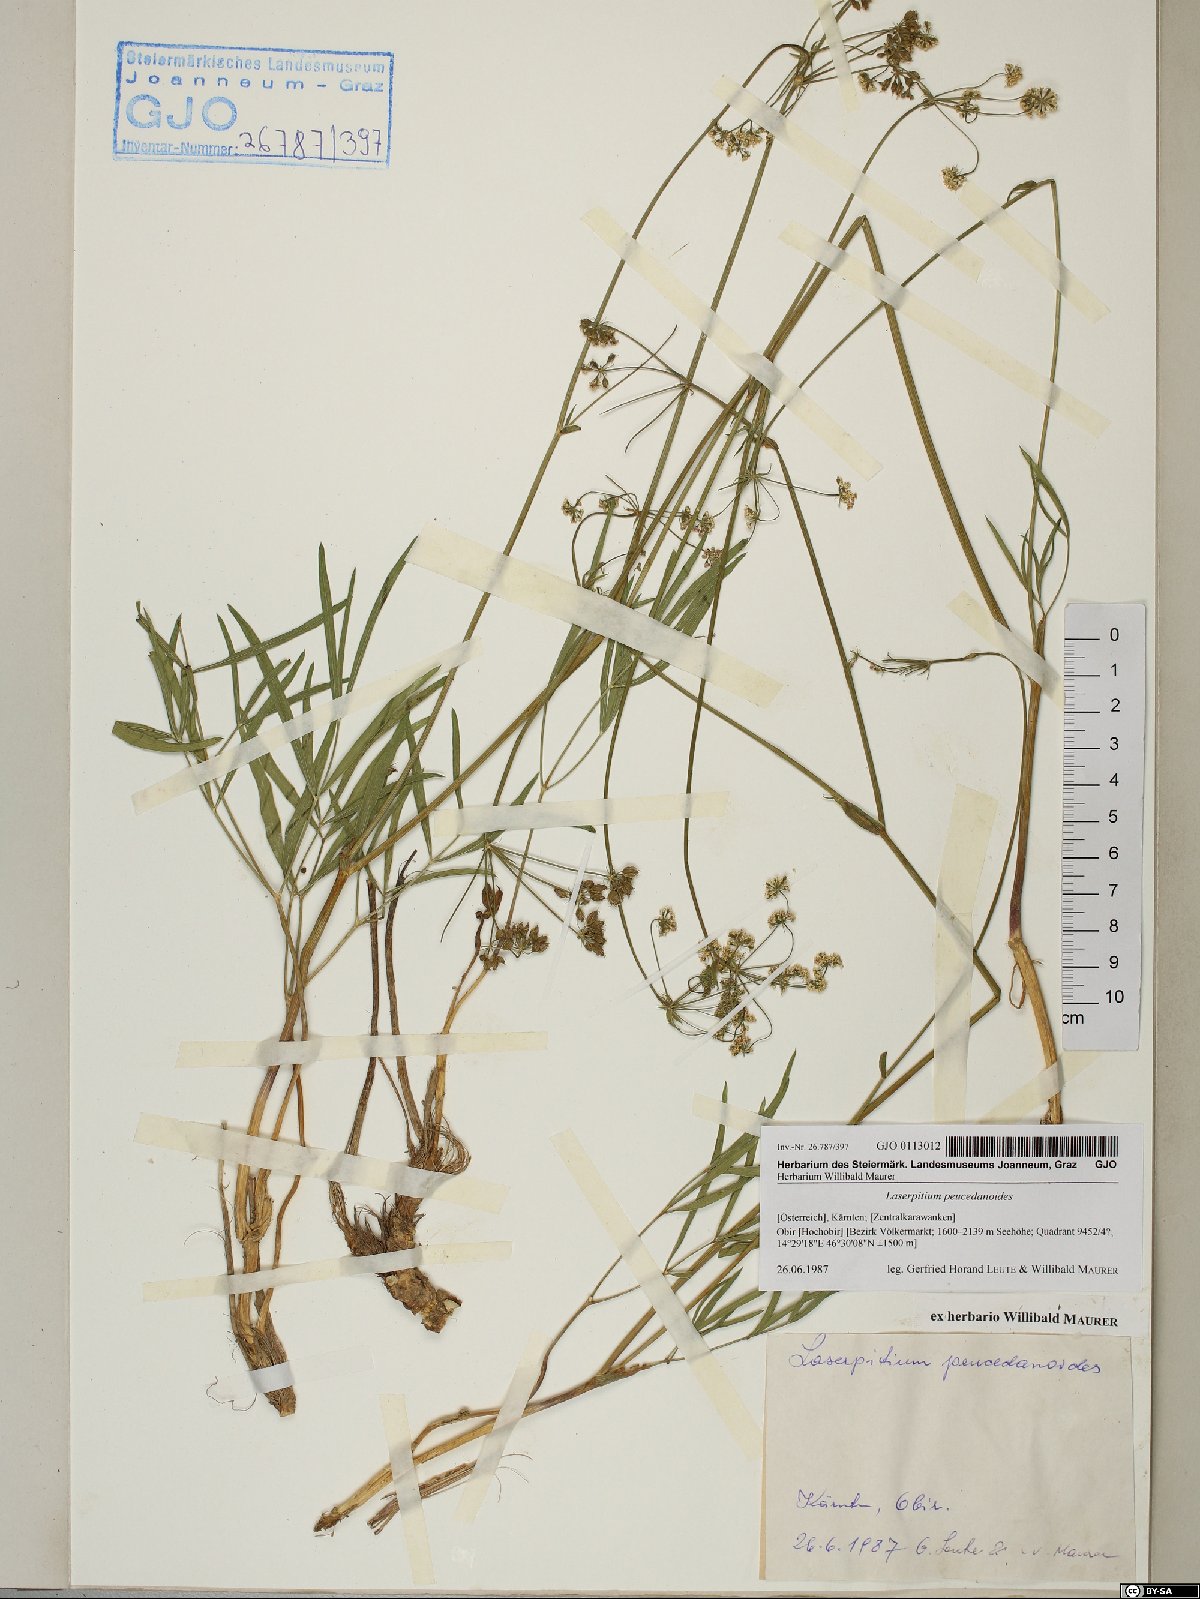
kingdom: Plantae
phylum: Tracheophyta
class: Magnoliopsida
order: Apiales
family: Apiaceae
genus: Laserpitium
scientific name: Laserpitium peucedanoides
